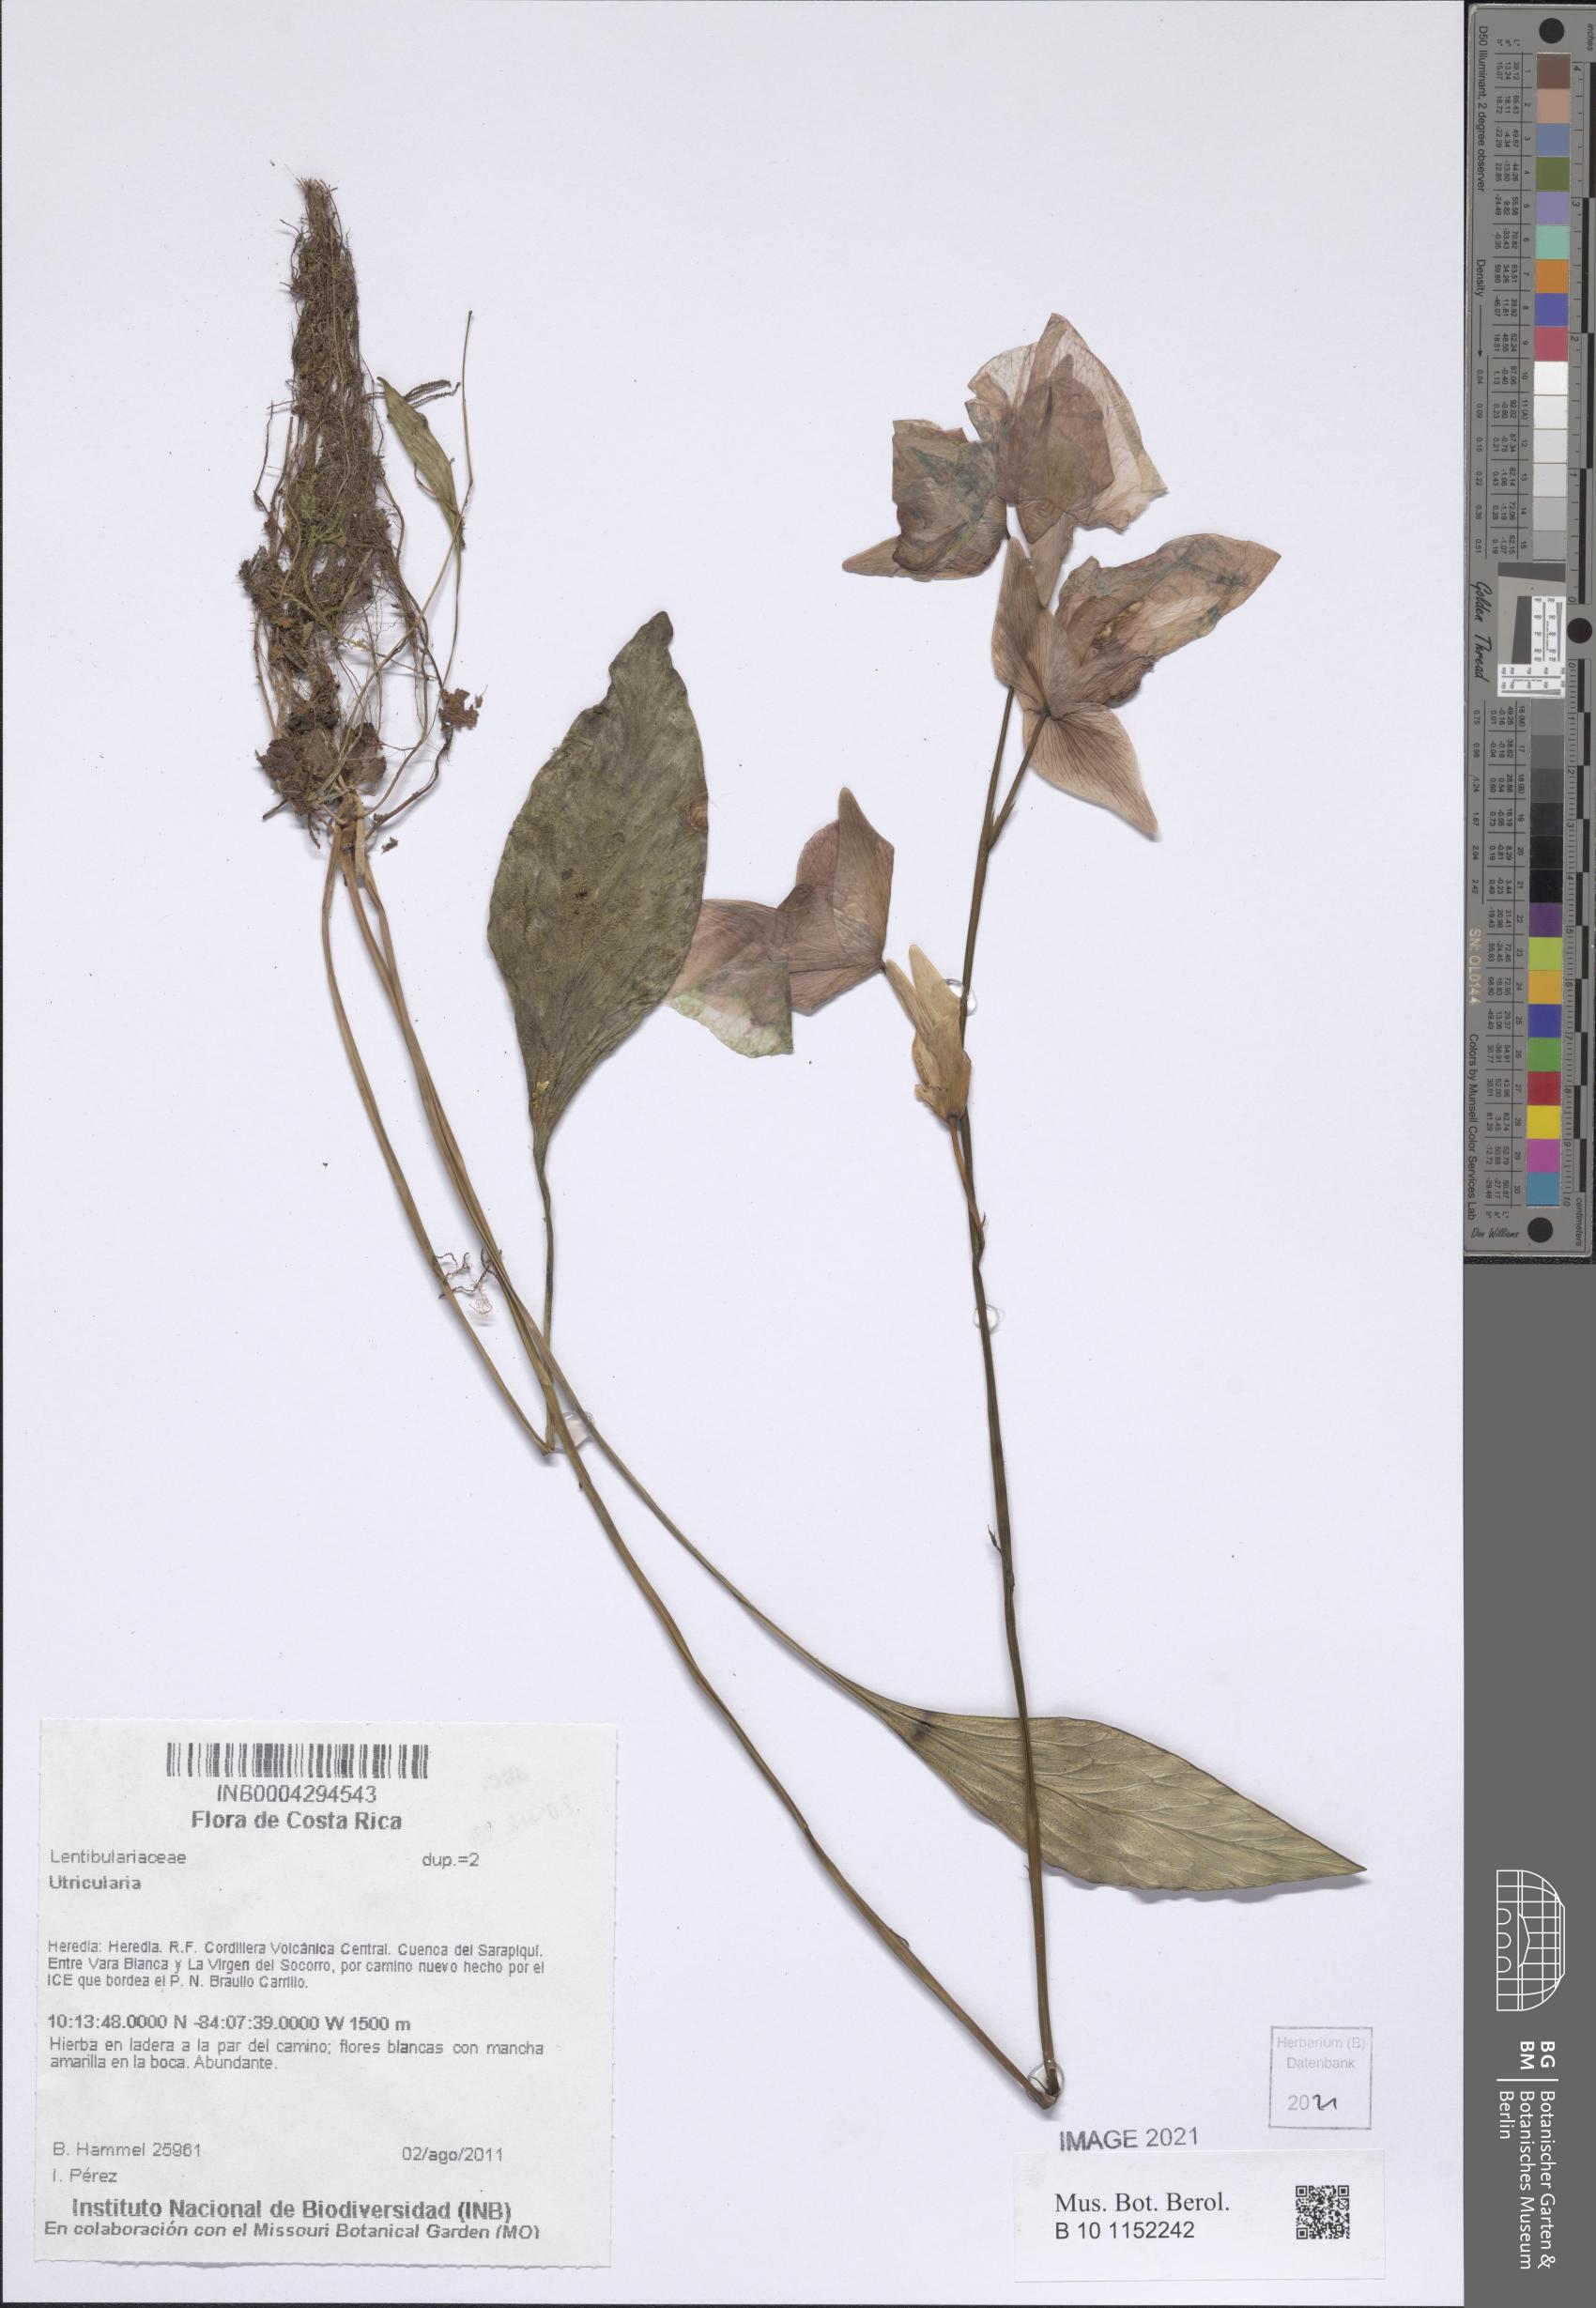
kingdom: Plantae
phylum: Tracheophyta
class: Magnoliopsida
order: Lamiales
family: Lentibulariaceae
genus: Utricularia
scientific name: Utricularia
